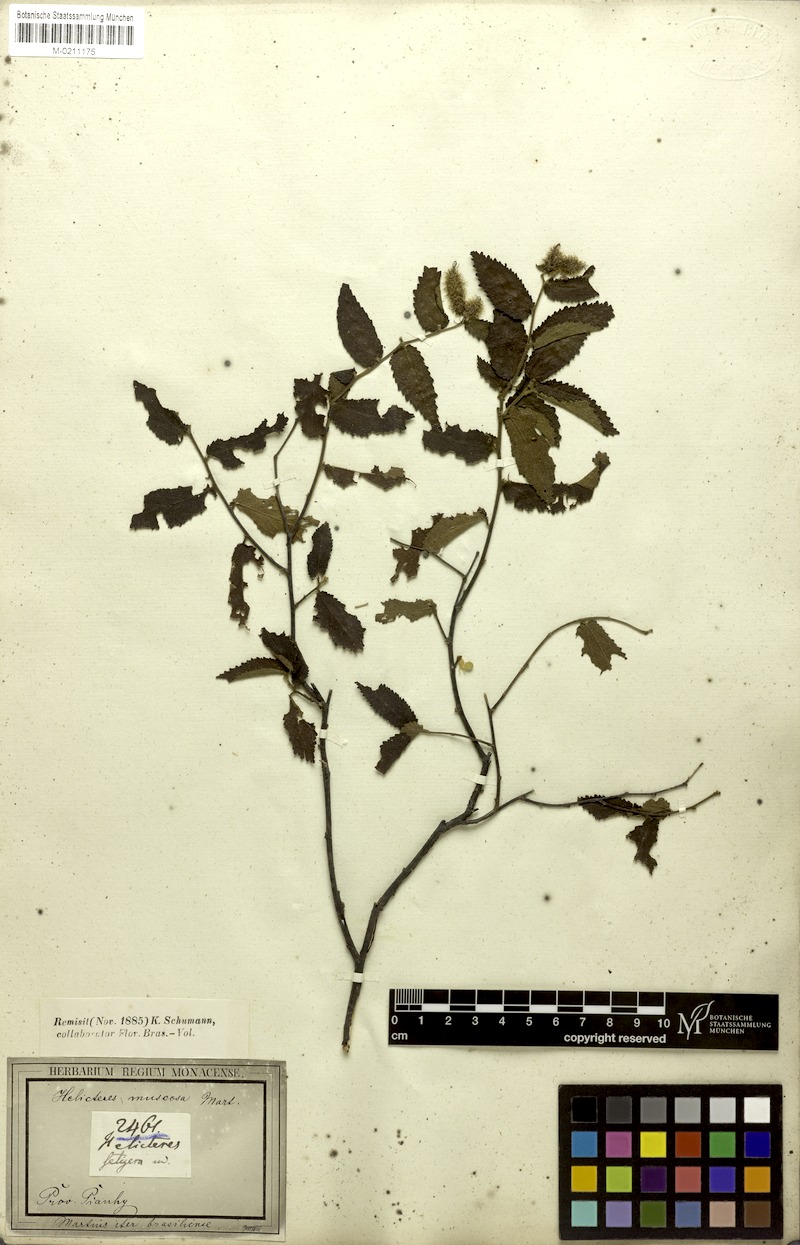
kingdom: Plantae
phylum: Tracheophyta
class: Magnoliopsida
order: Malvales
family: Malvaceae
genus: Helicteres
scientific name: Helicteres muscosa
